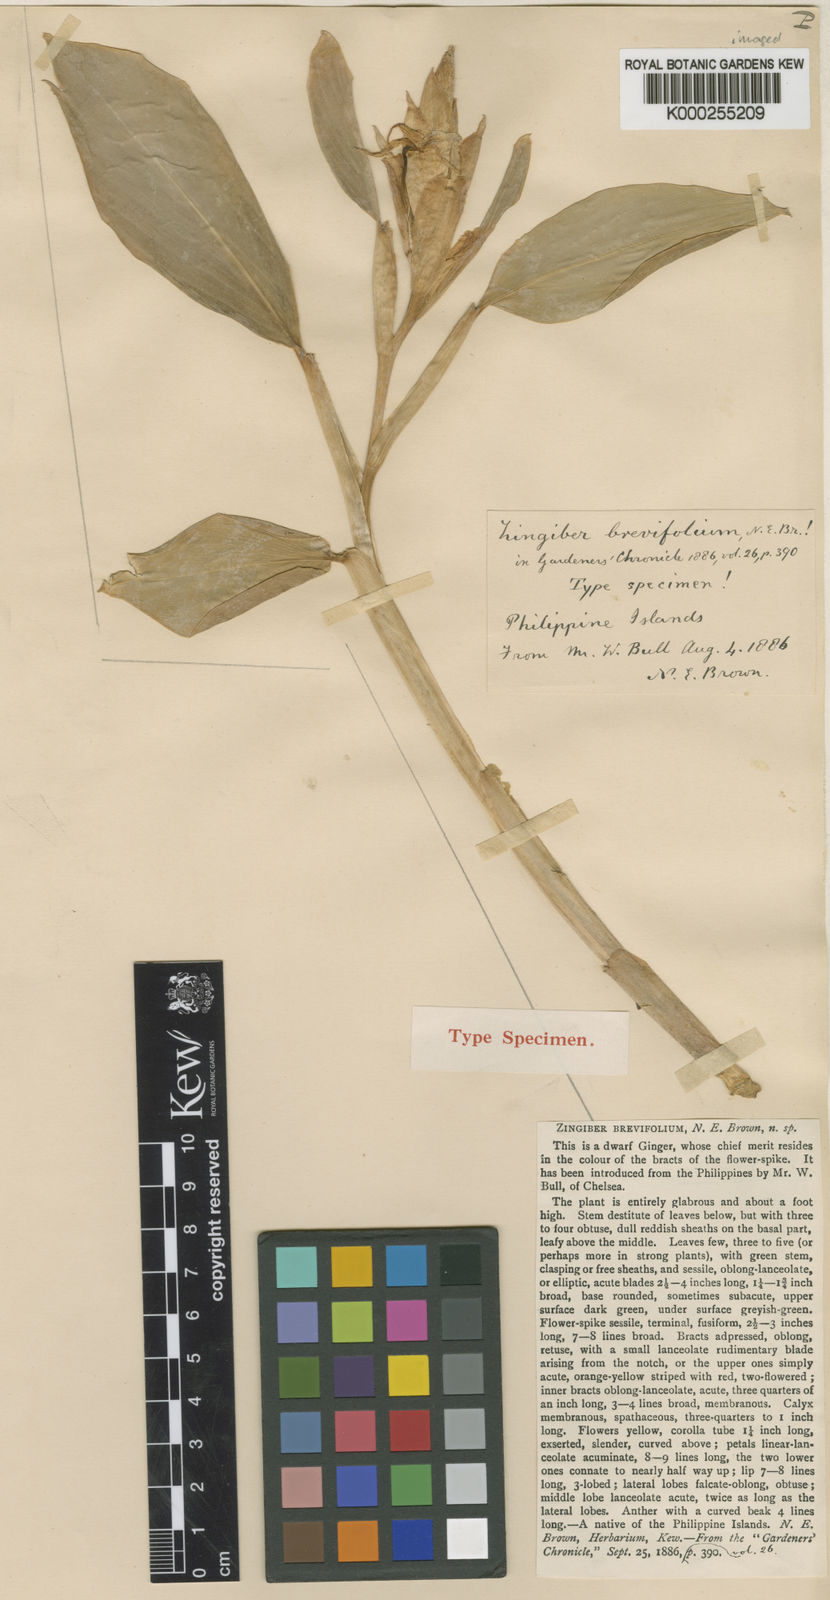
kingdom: Plantae
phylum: Tracheophyta
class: Liliopsida
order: Zingiberales
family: Zingiberaceae
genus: Zingiber
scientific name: Zingiber brevifolium
